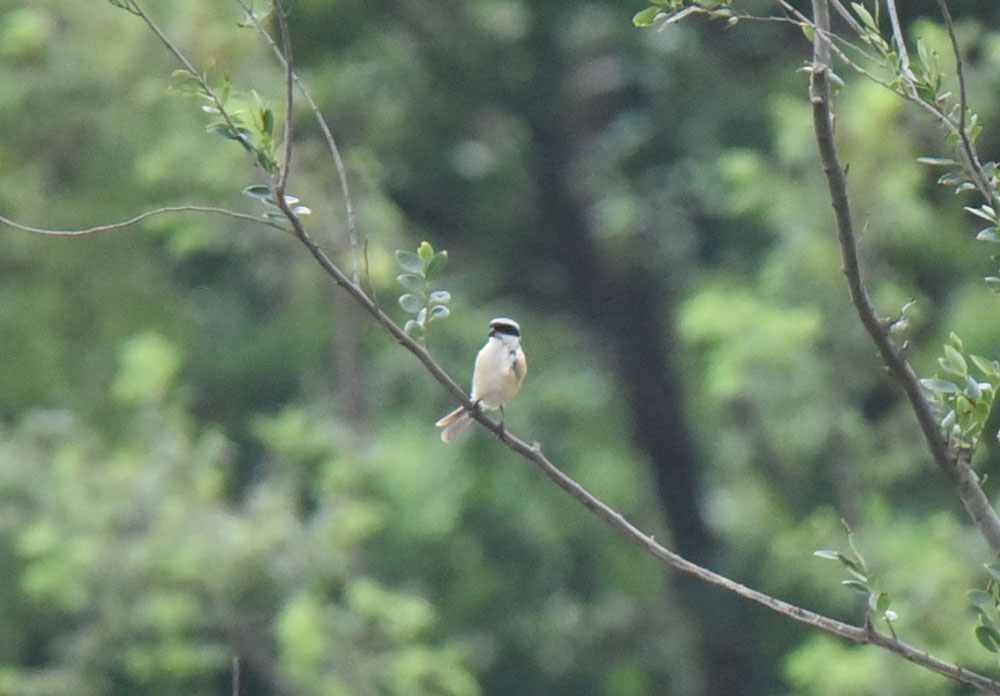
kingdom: Animalia
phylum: Chordata
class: Aves
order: Passeriformes
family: Laniidae
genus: Lanius
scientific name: Lanius schach
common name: Long-tailed shrike
